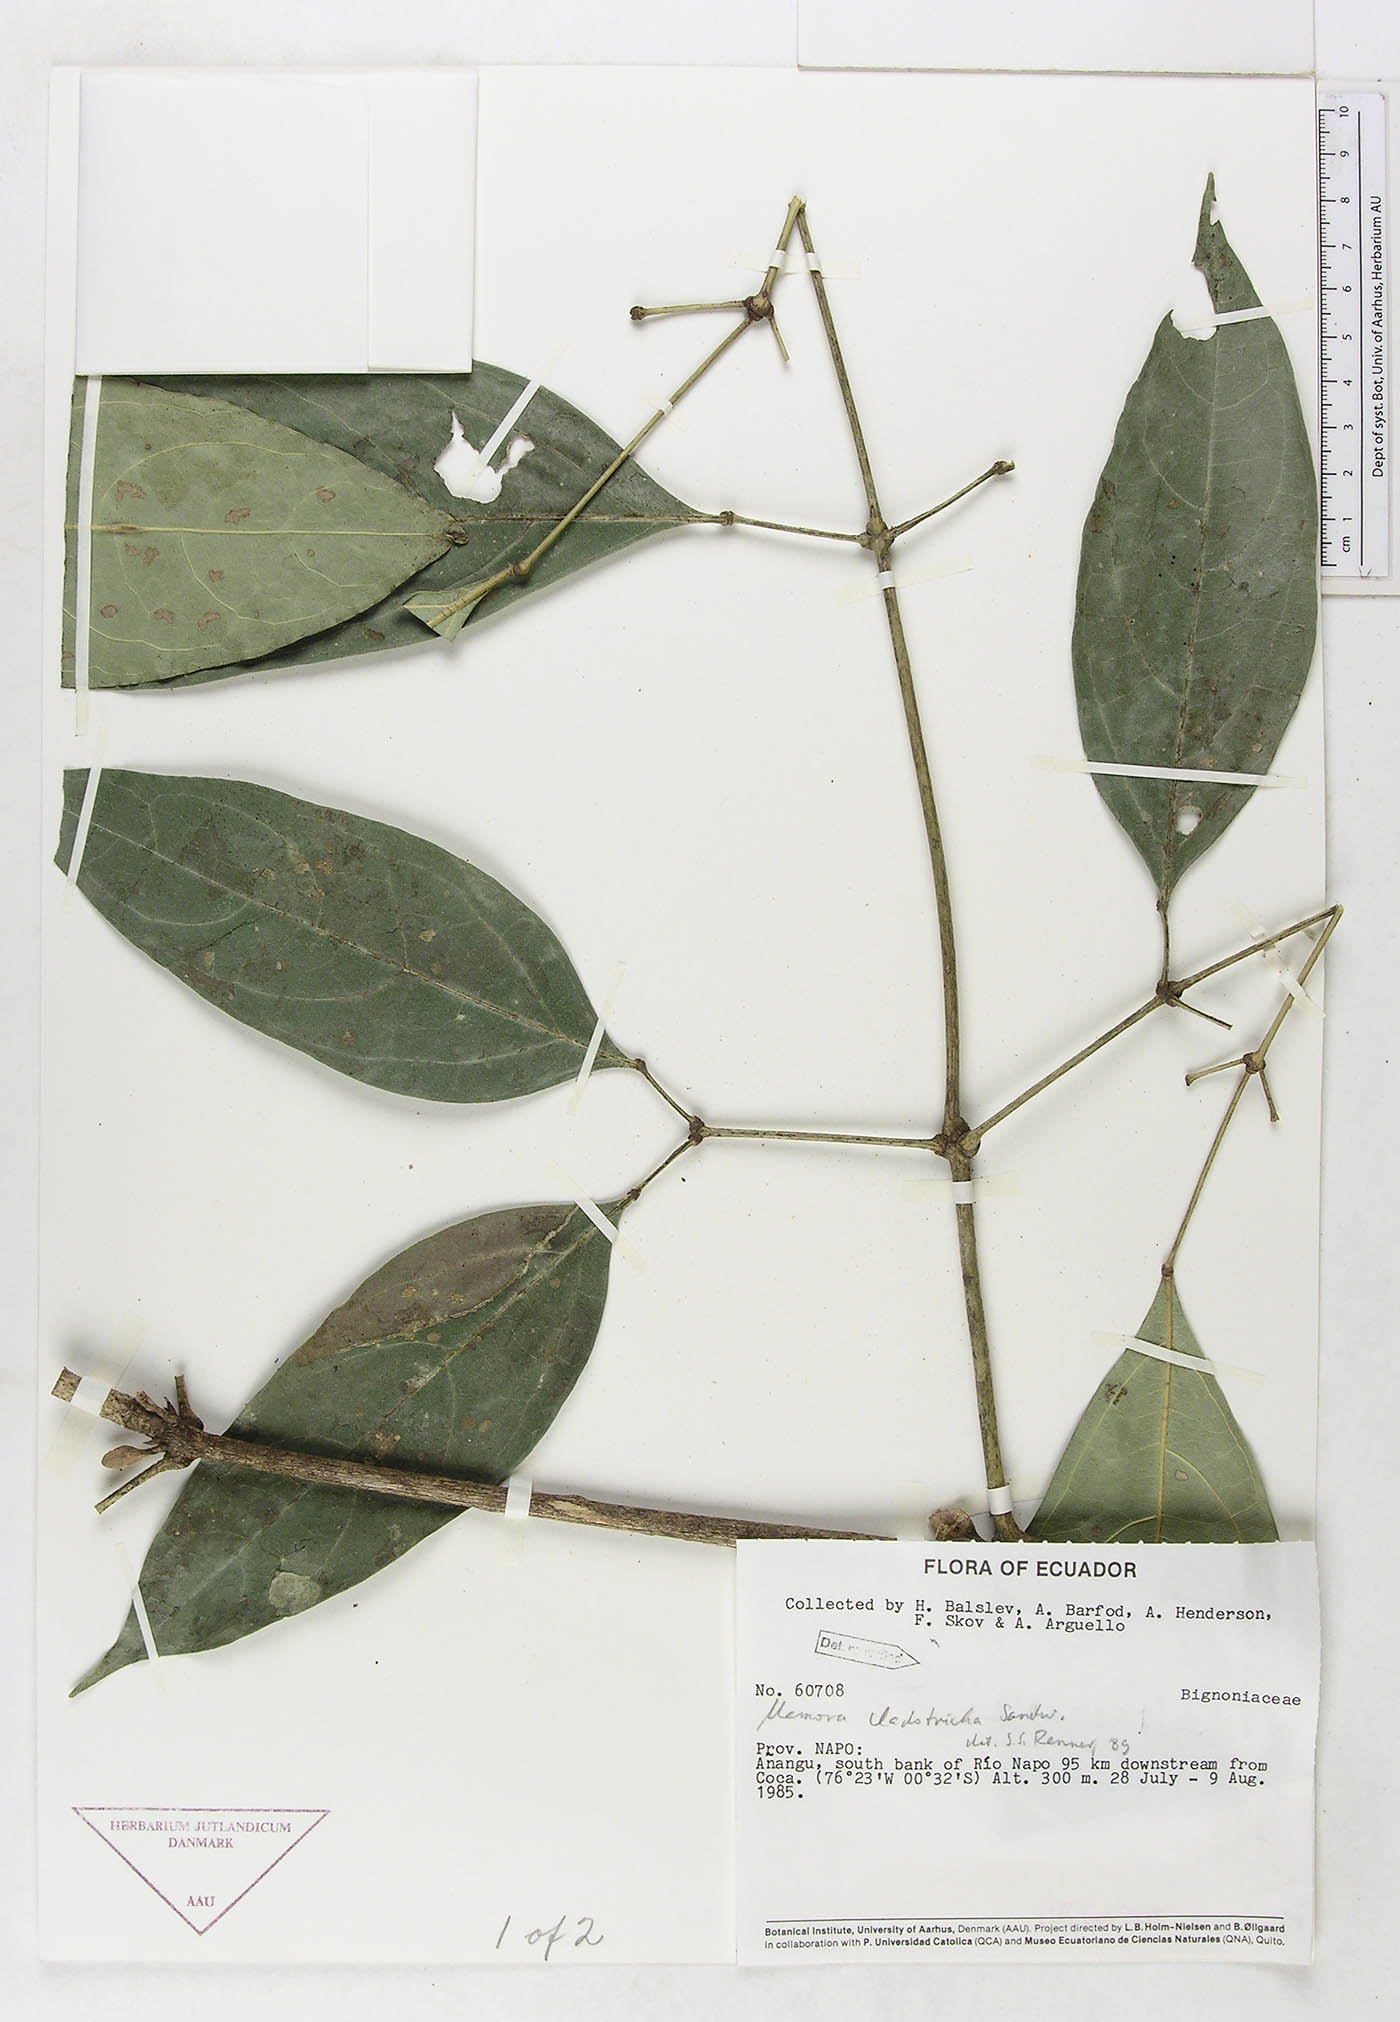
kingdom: Plantae
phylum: Tracheophyta
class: Magnoliopsida
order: Lamiales
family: Bignoniaceae
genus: Adenocalymma
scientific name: Adenocalymma cladotrichum
